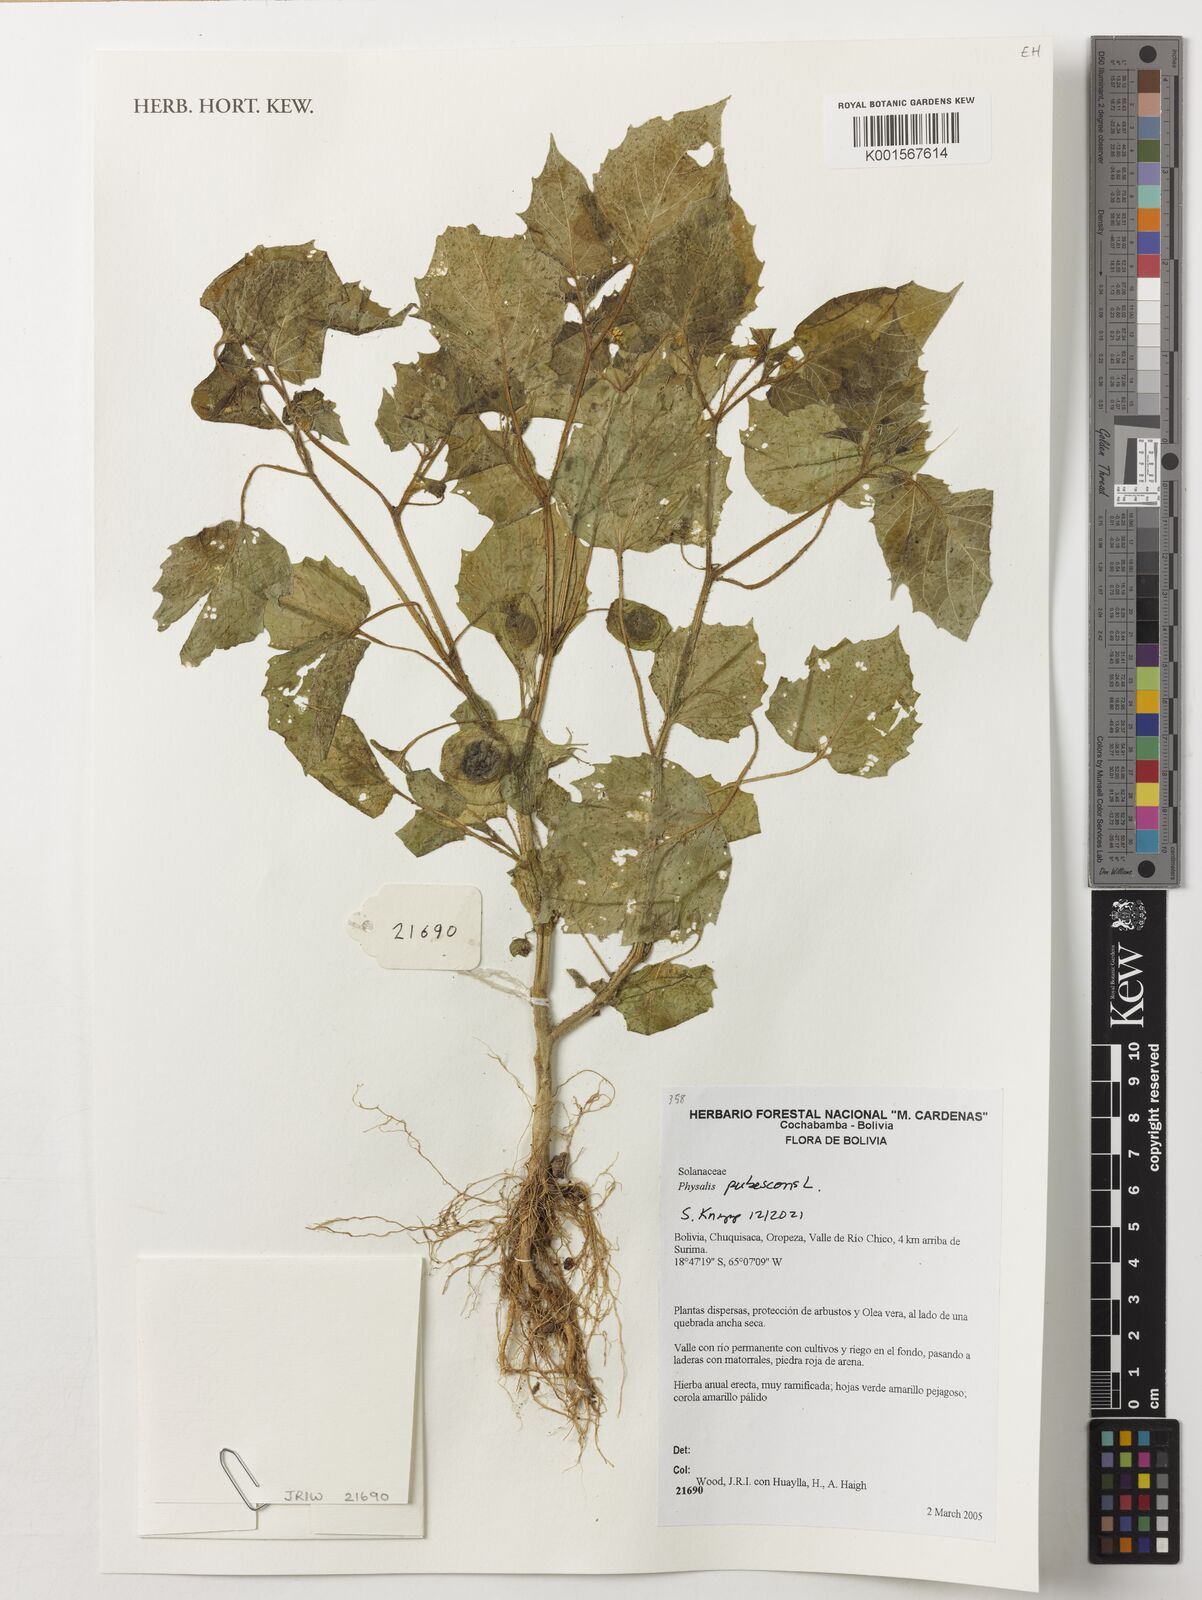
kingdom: Plantae
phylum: Tracheophyta
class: Magnoliopsida
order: Solanales
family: Solanaceae
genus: Physalis
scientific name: Physalis pubescens
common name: Downy ground-cherry
